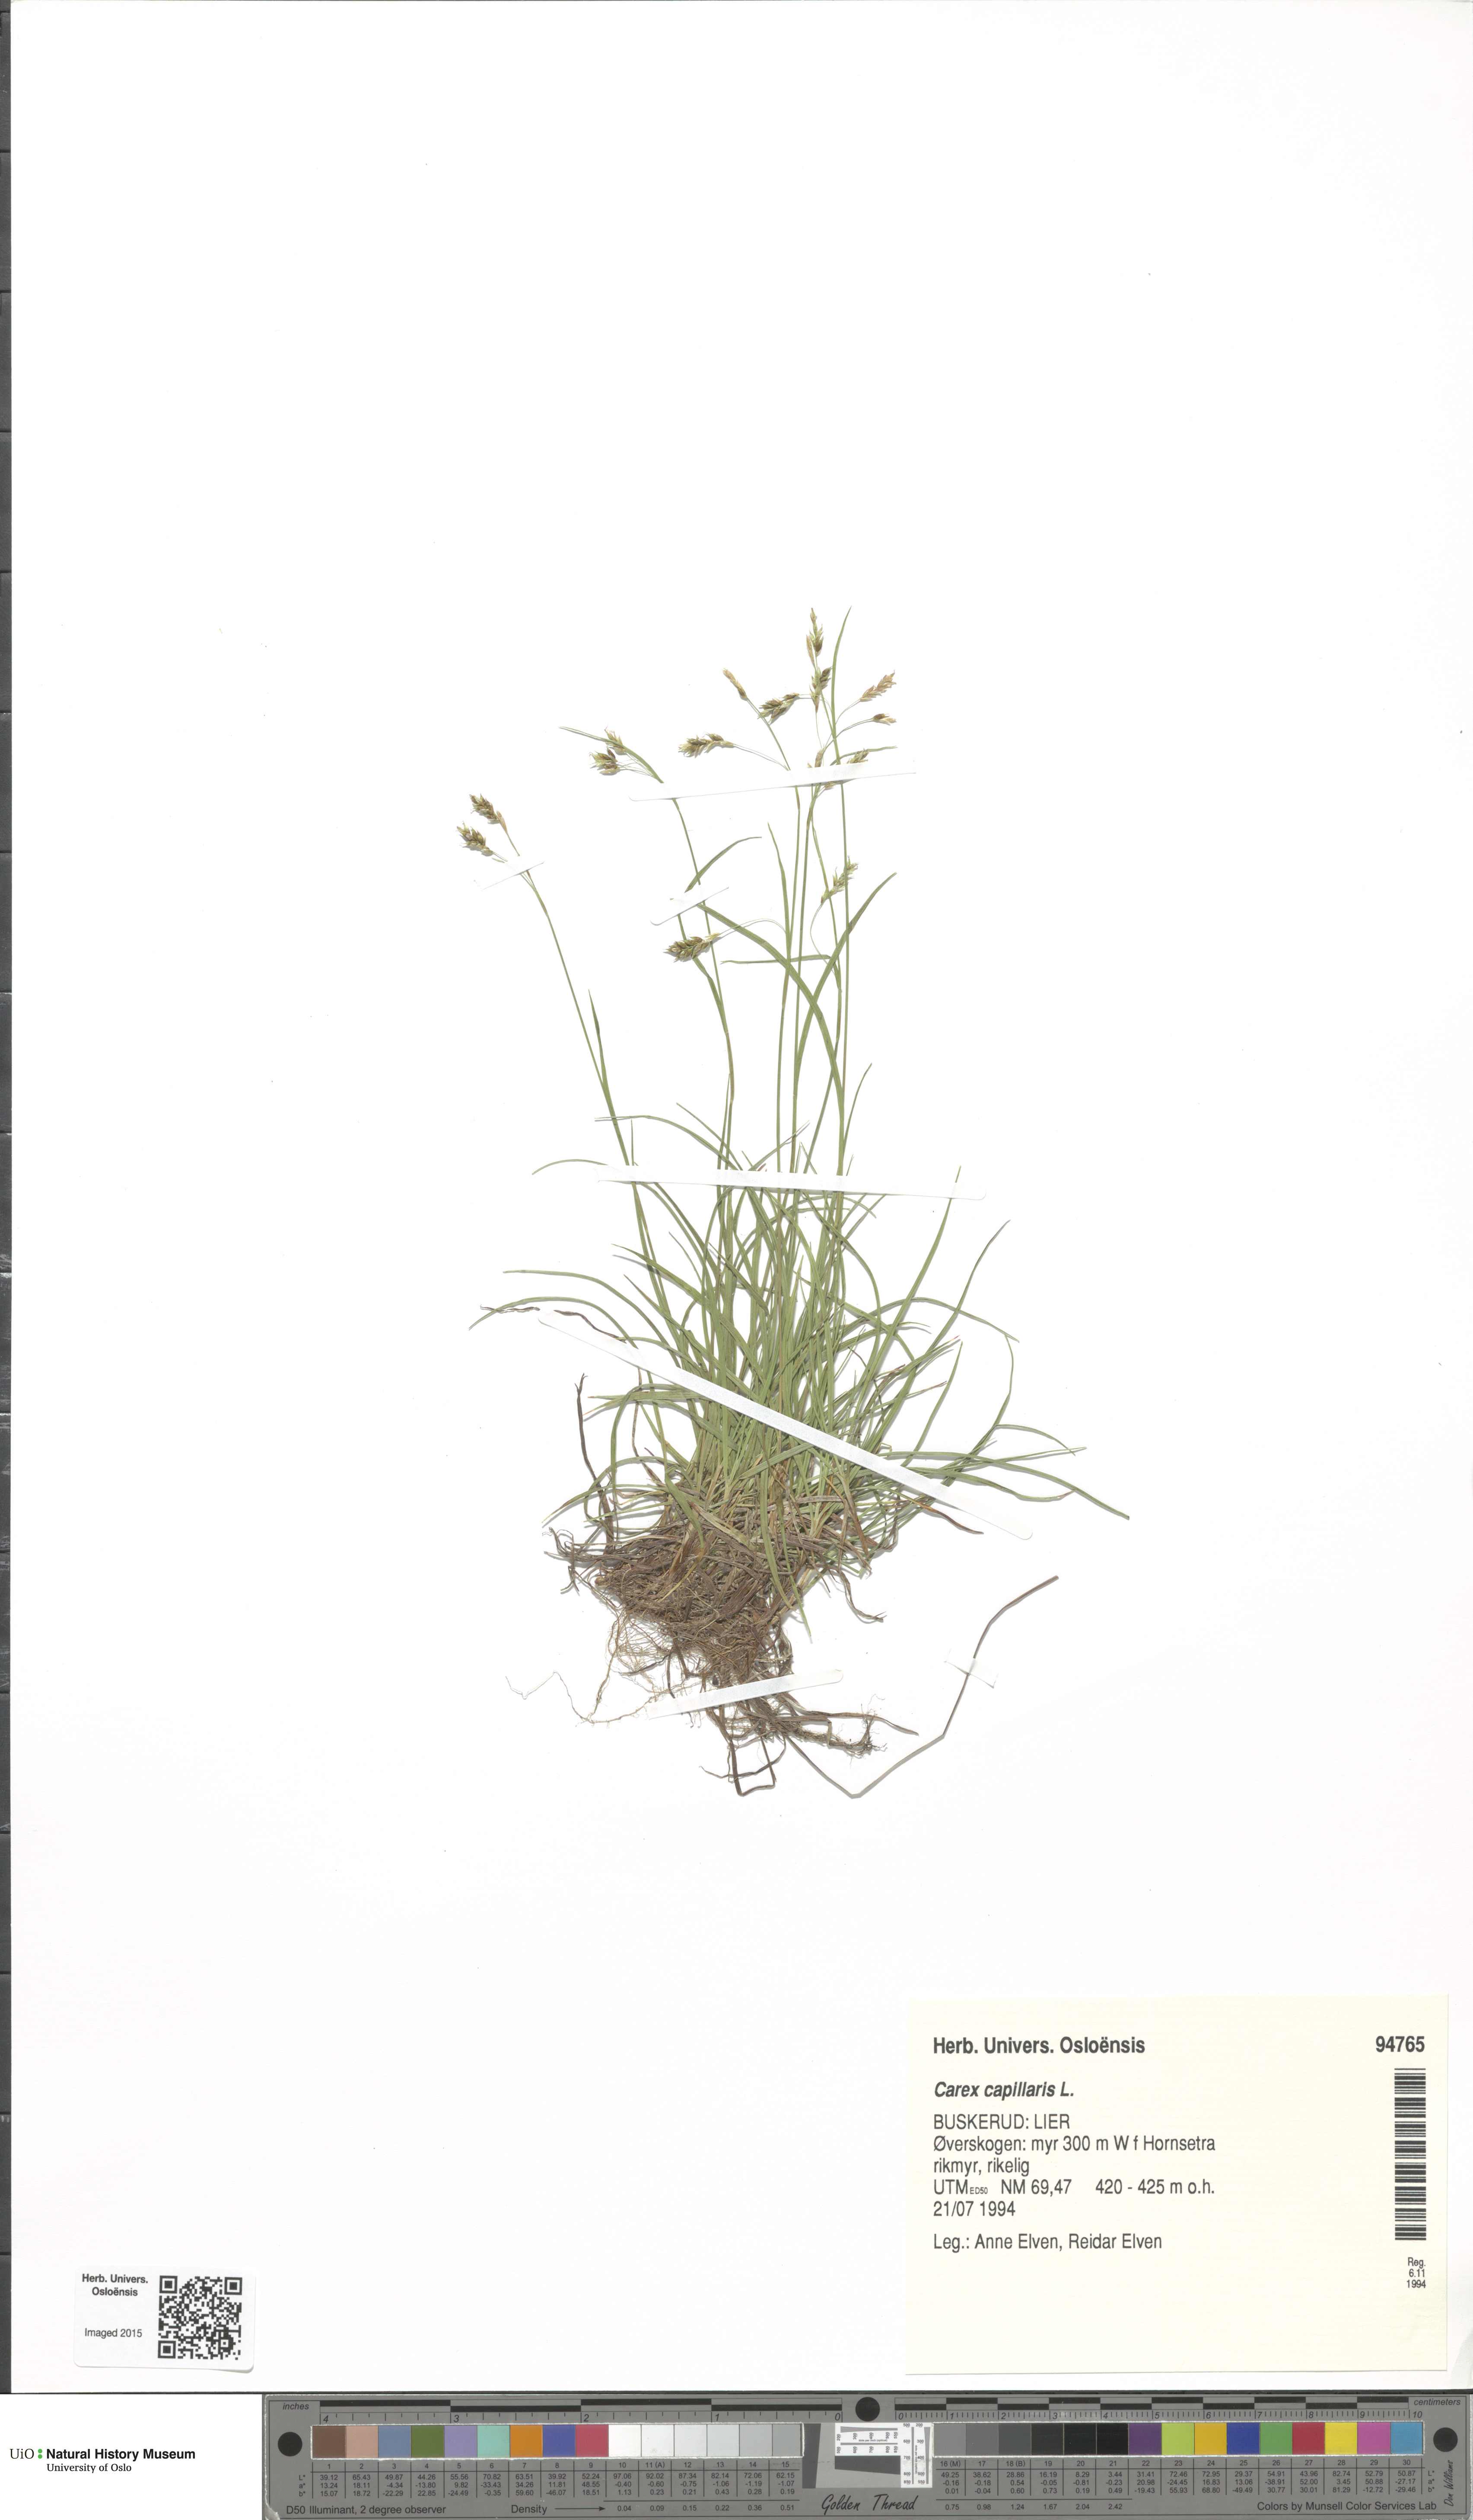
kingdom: Plantae
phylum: Tracheophyta
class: Liliopsida
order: Poales
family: Cyperaceae
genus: Carex
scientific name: Carex capillaris
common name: Hair sedge
